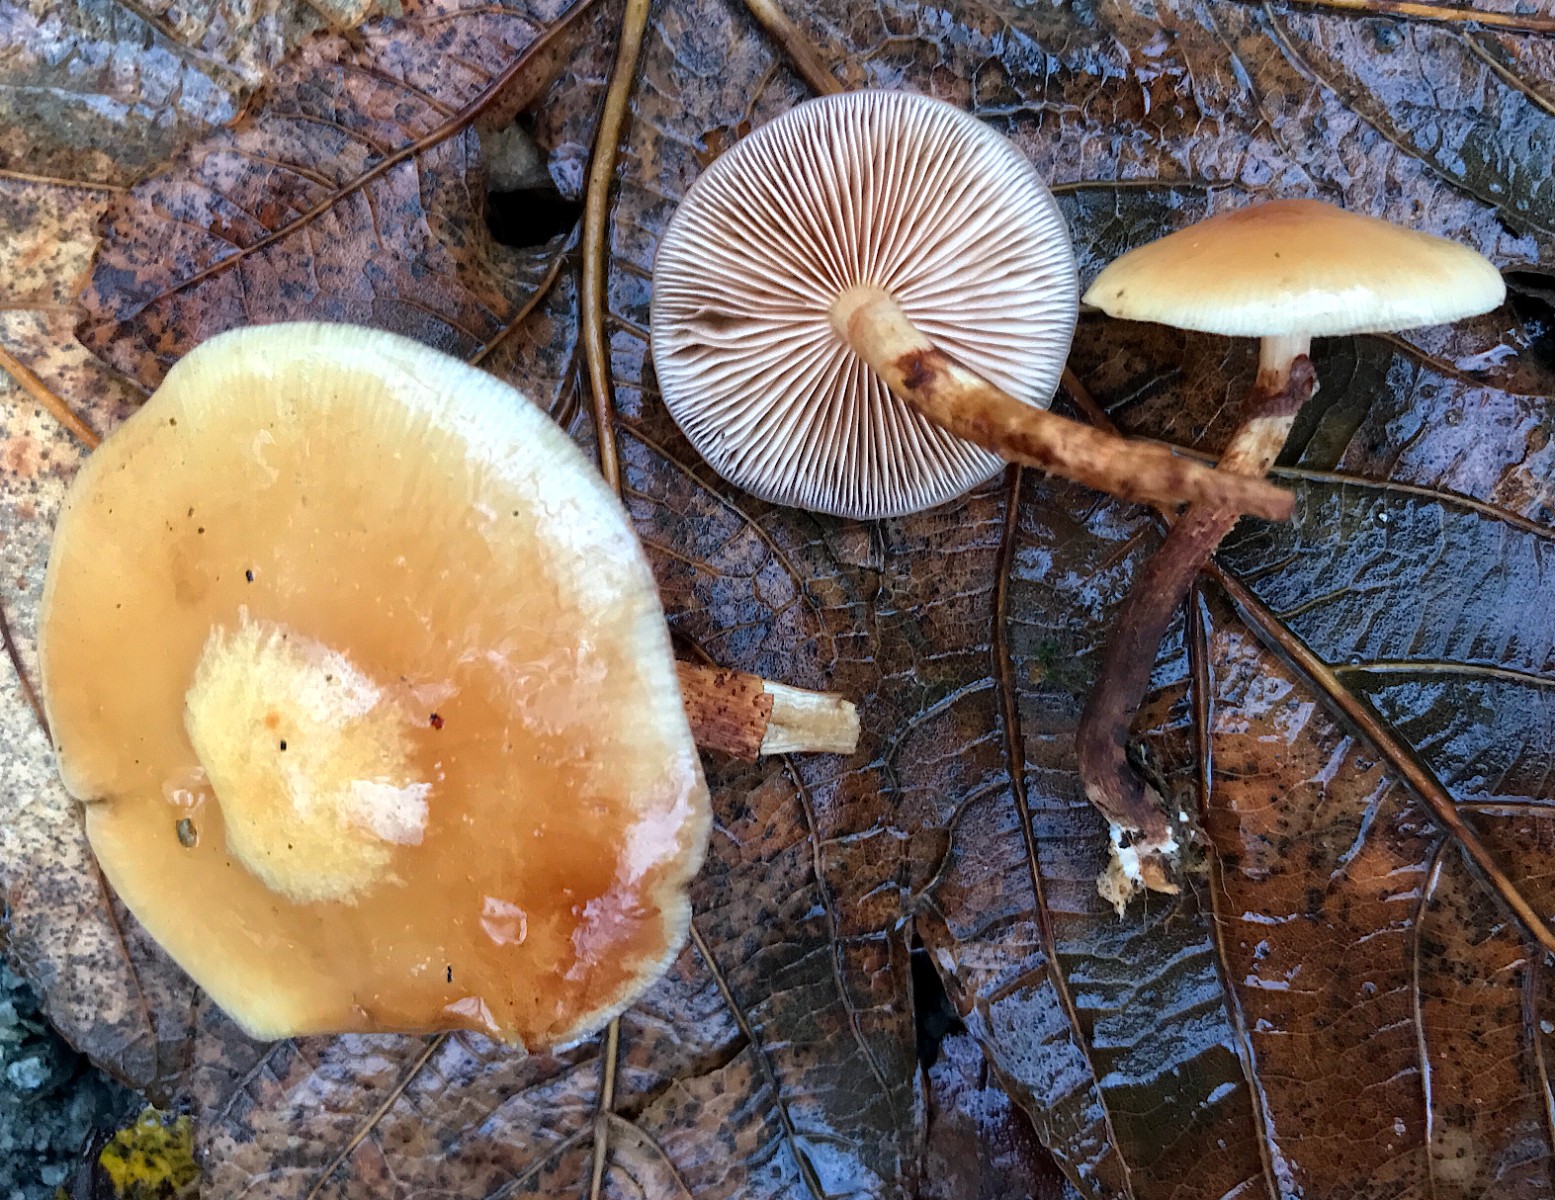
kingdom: Fungi
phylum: Basidiomycota
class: Agaricomycetes
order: Agaricales
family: Strophariaceae
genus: Kuehneromyces
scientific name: Kuehneromyces mutabilis
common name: foranderlig skælhat
